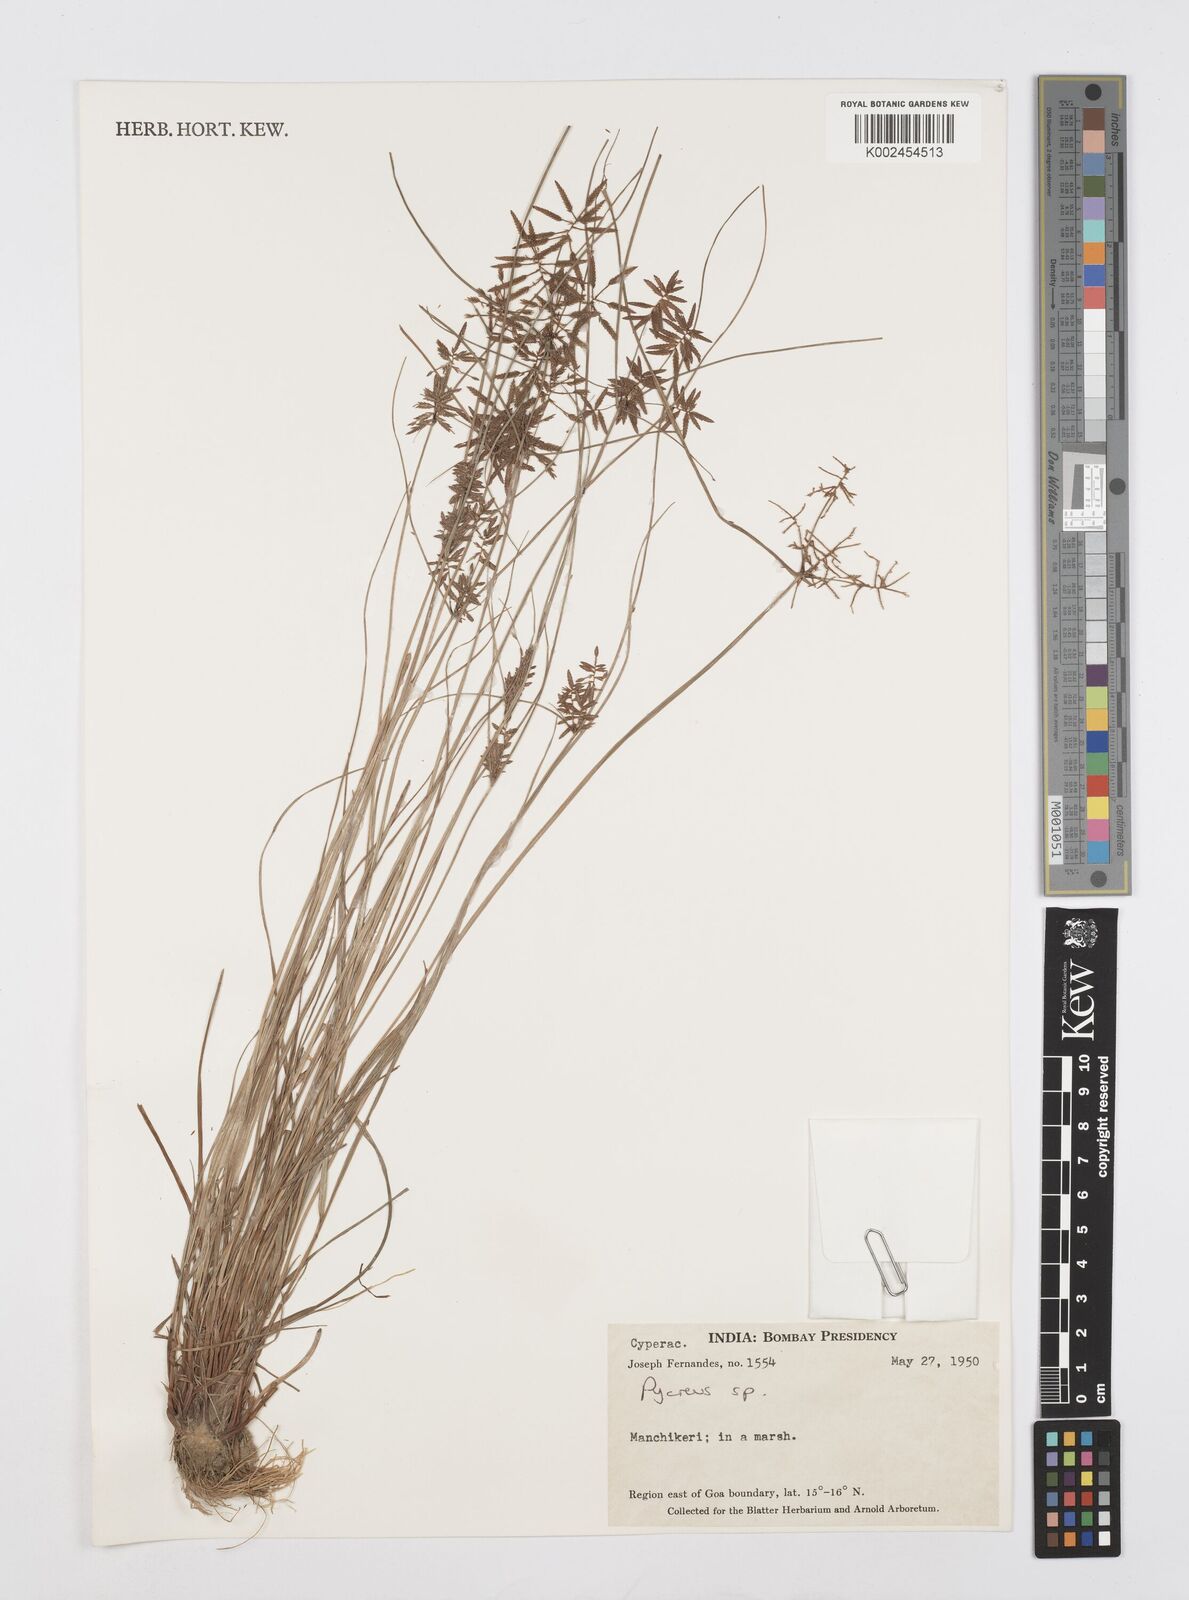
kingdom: Plantae
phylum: Tracheophyta
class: Liliopsida
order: Poales
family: Cyperaceae
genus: Cyperus
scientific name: Cyperus
